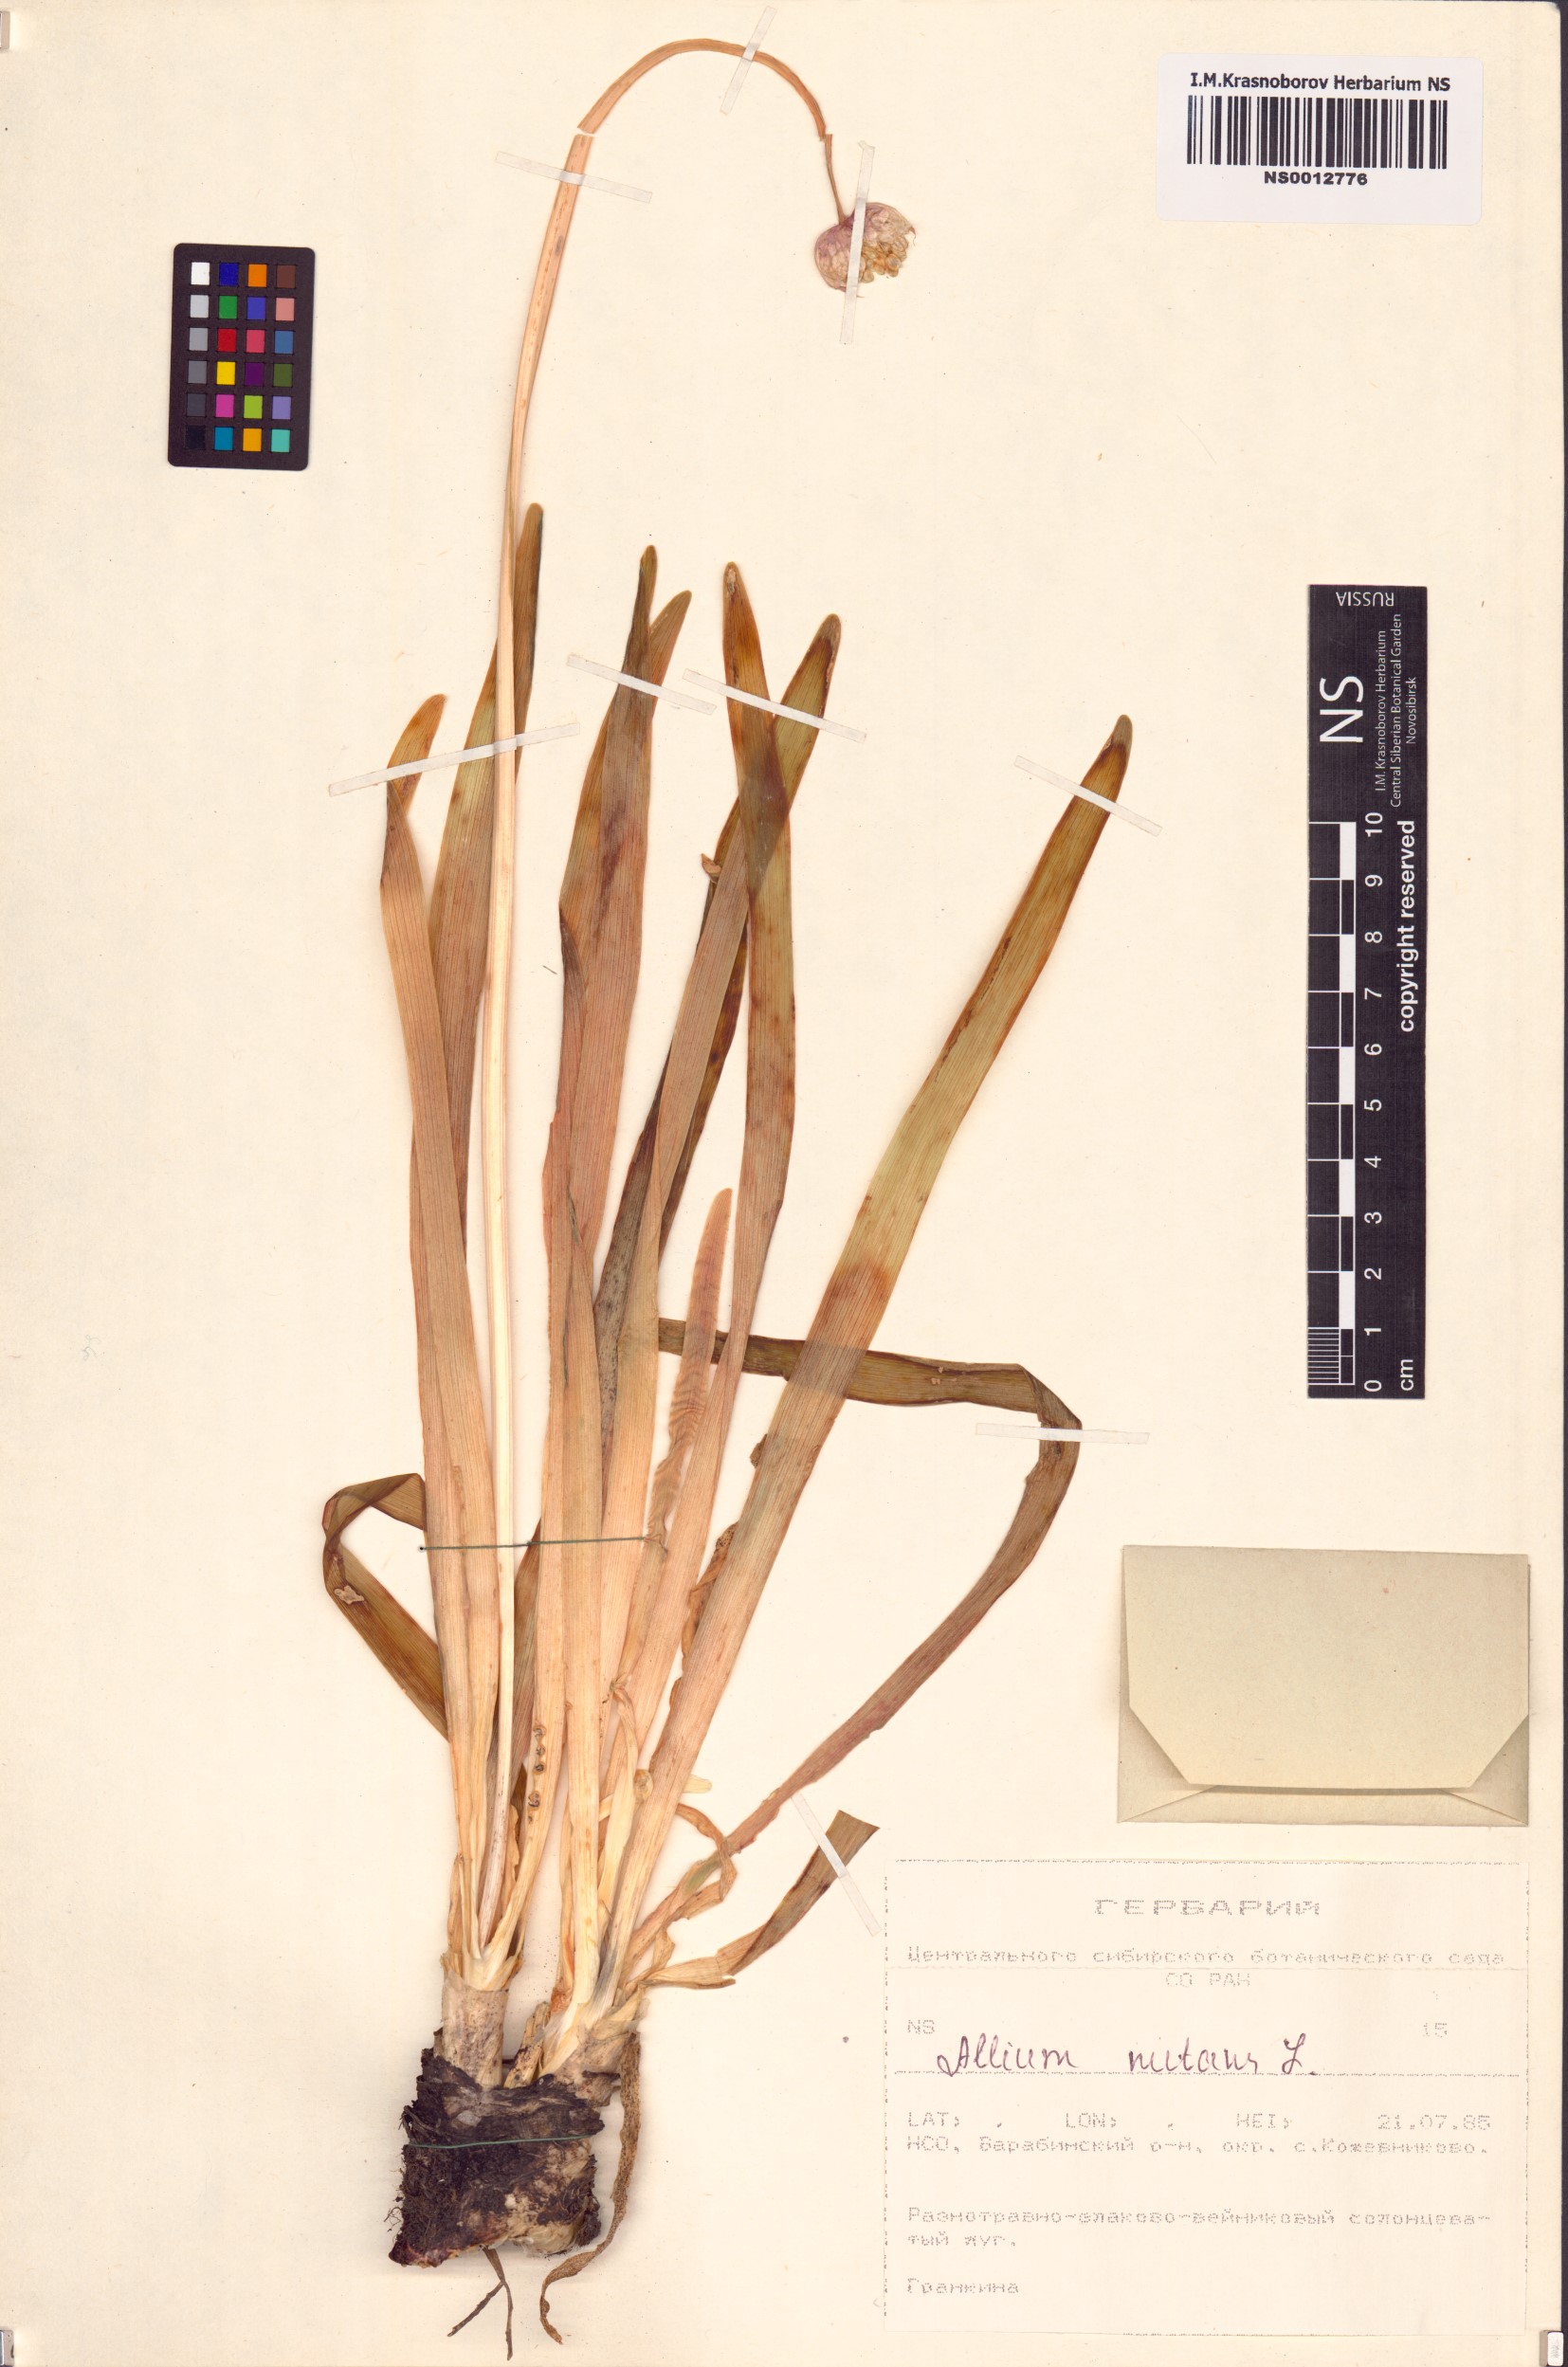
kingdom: Plantae
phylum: Tracheophyta
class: Liliopsida
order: Asparagales
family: Amaryllidaceae
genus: Allium
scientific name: Allium nutans
